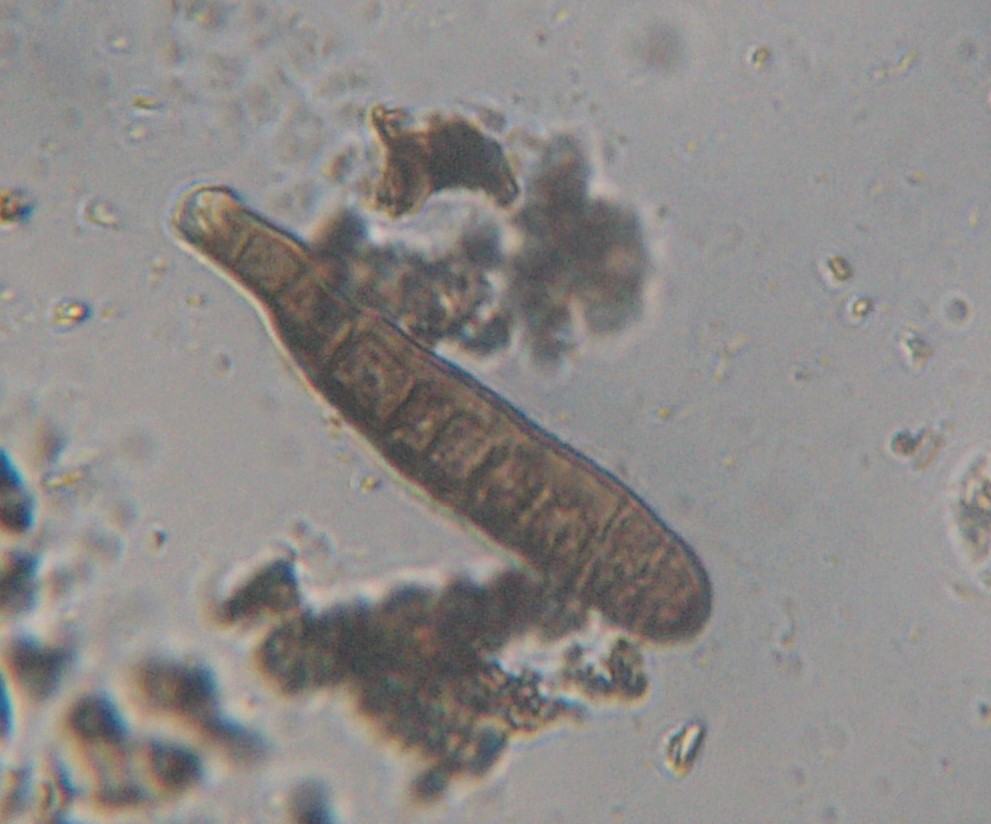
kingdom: Fungi
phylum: Ascomycota
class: Dothideomycetes
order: Pleosporales
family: Massarinaceae
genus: Helminthosporium
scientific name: Helminthosporium oligosporum
